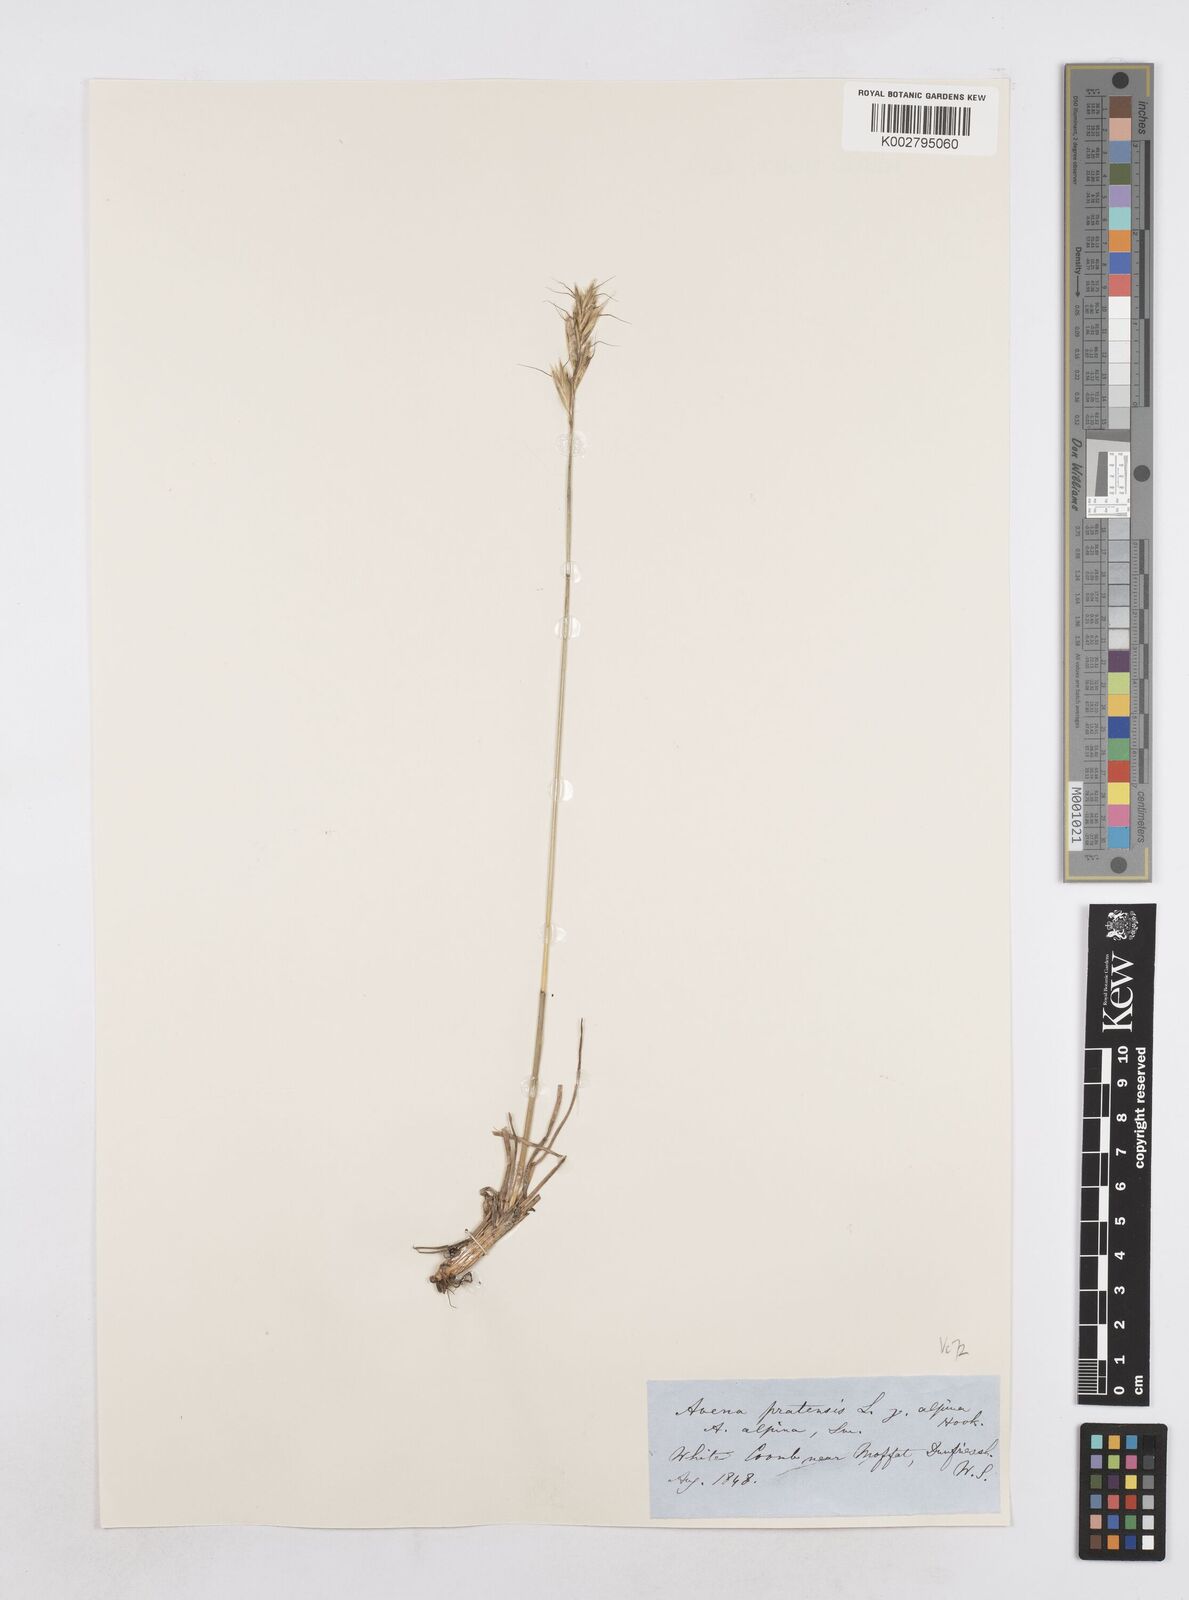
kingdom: Plantae
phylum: Tracheophyta
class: Liliopsida
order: Poales
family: Poaceae
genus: Helictochloa
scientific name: Helictochloa pratensis
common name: Meadow oat grass
